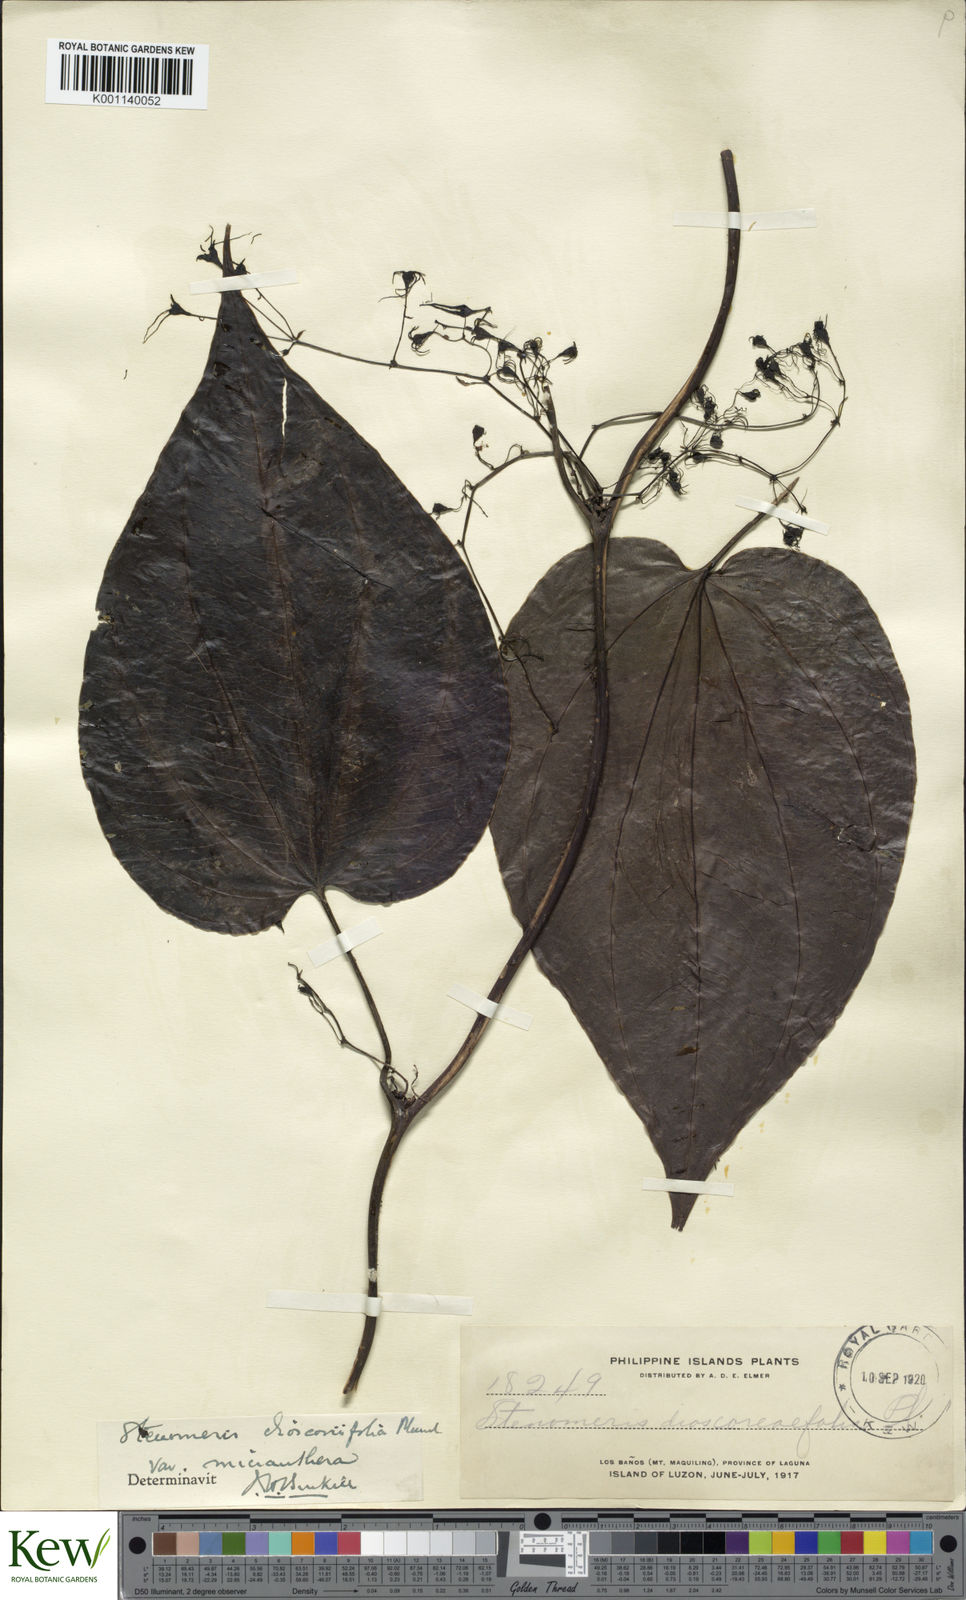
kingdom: Plantae
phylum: Tracheophyta
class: Liliopsida
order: Dioscoreales
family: Dioscoreaceae
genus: Stenomeris
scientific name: Stenomeris dioscoreifolia
